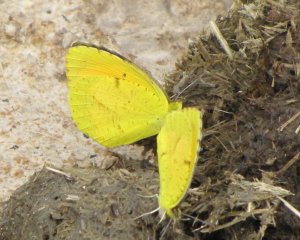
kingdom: Animalia
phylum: Arthropoda
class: Insecta
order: Lepidoptera
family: Pieridae
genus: Abaeis
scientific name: Abaeis nicippe
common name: Sleepy Orange
